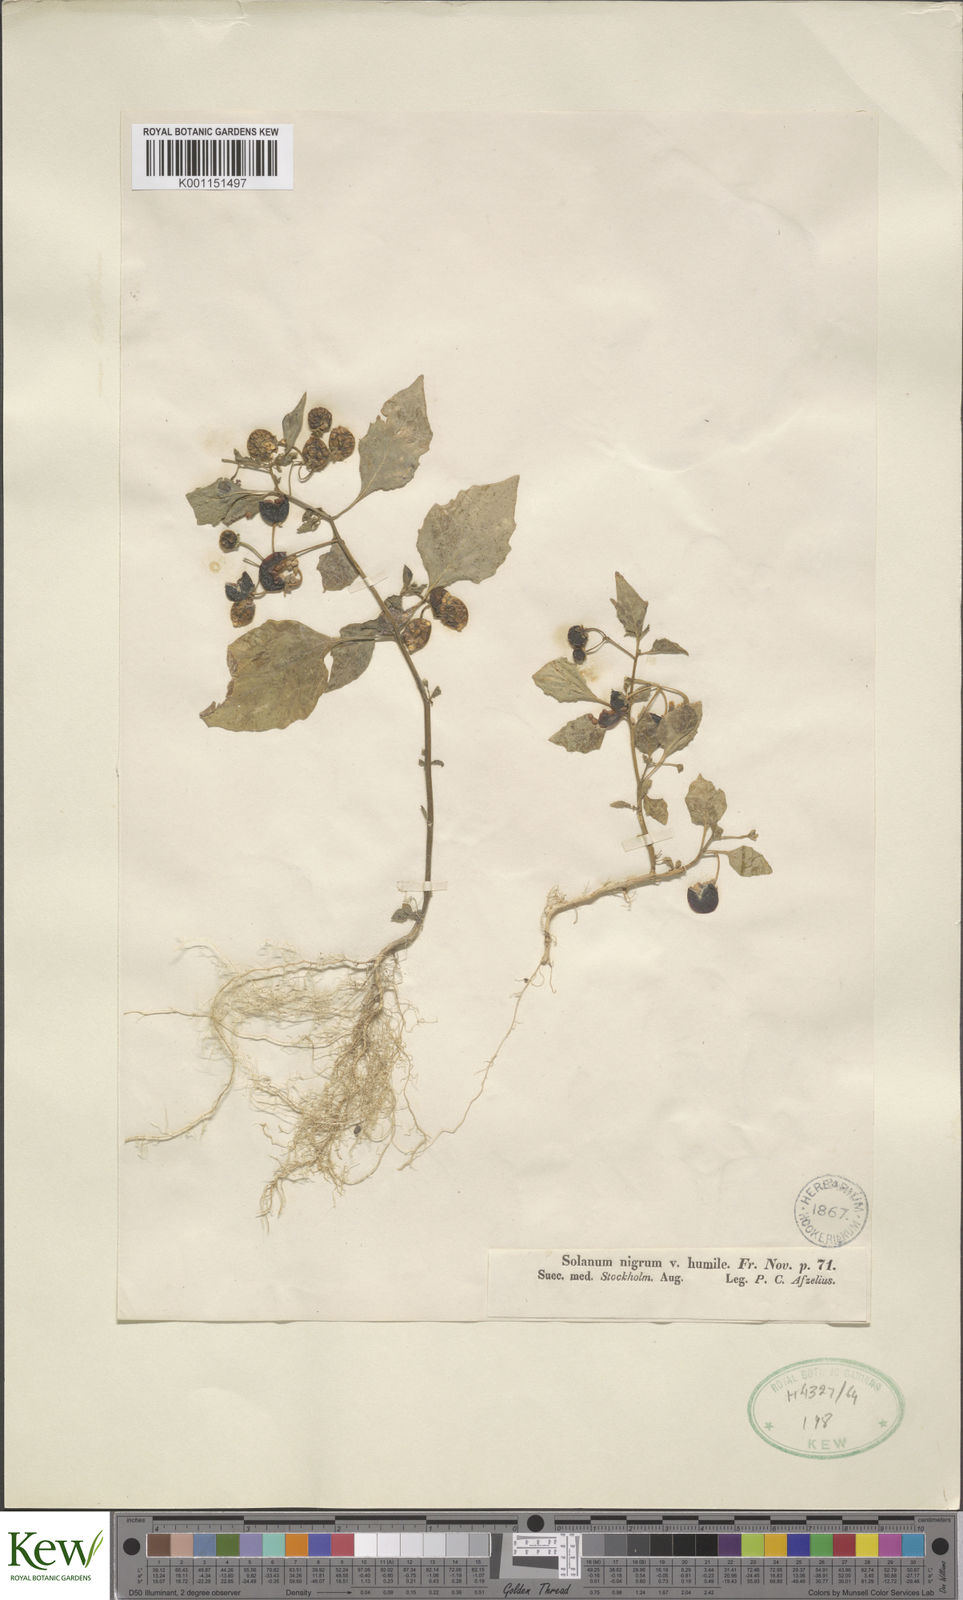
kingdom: Plantae
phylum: Tracheophyta
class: Magnoliopsida
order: Solanales
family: Solanaceae
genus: Solanum
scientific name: Solanum villosum
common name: Red nightshade
